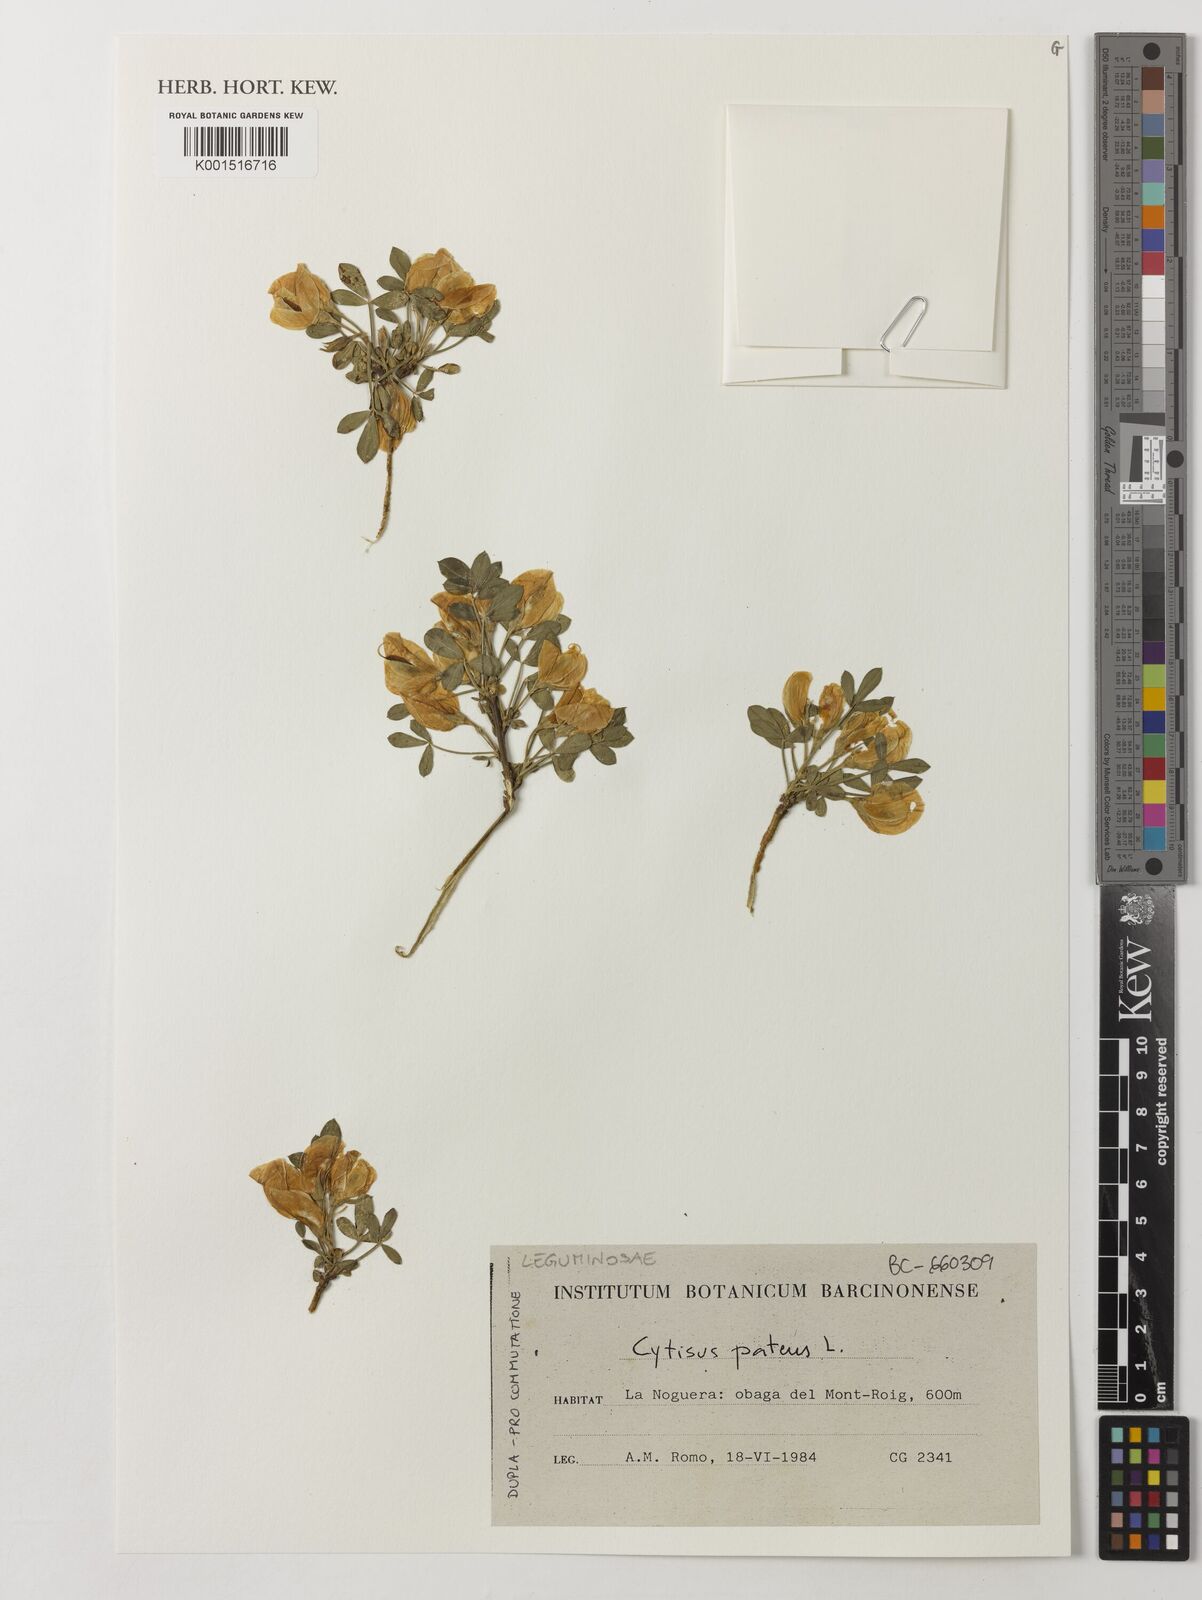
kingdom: Plantae
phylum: Tracheophyta
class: Magnoliopsida
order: Fabales
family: Fabaceae
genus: Cytisus
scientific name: Cytisus striatus
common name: Hairy-fruited broom
